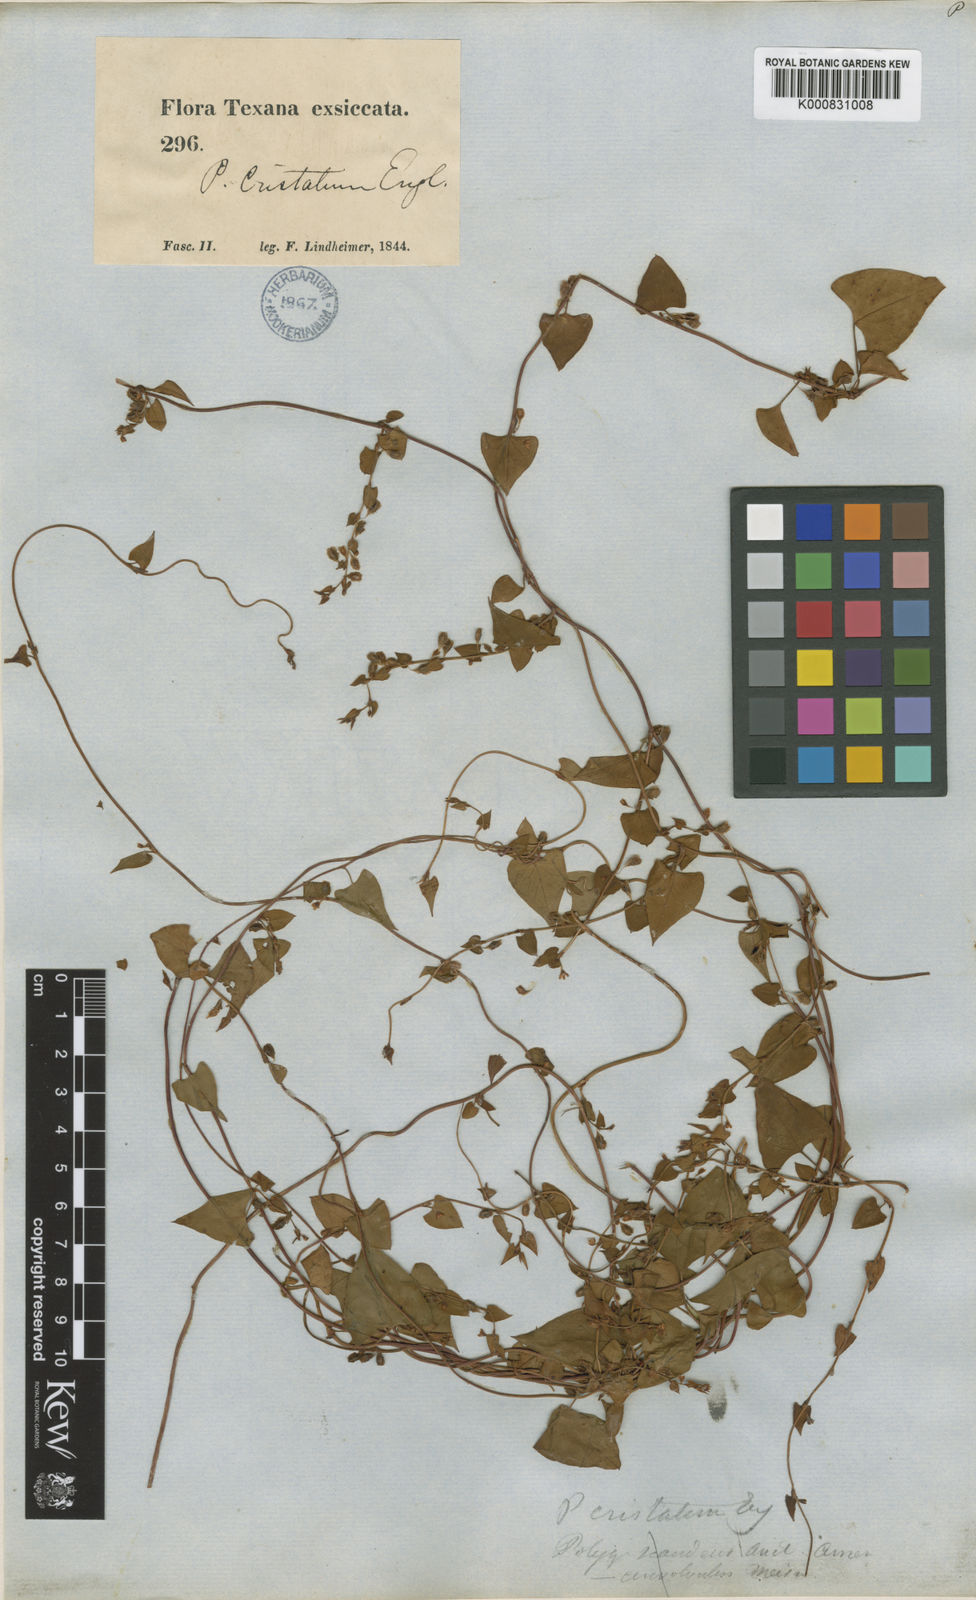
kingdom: Plantae
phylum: Tracheophyta
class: Magnoliopsida
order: Caryophyllales
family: Polygonaceae
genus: Fallopia
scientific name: Fallopia scandens
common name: Climbing false buckwheat
